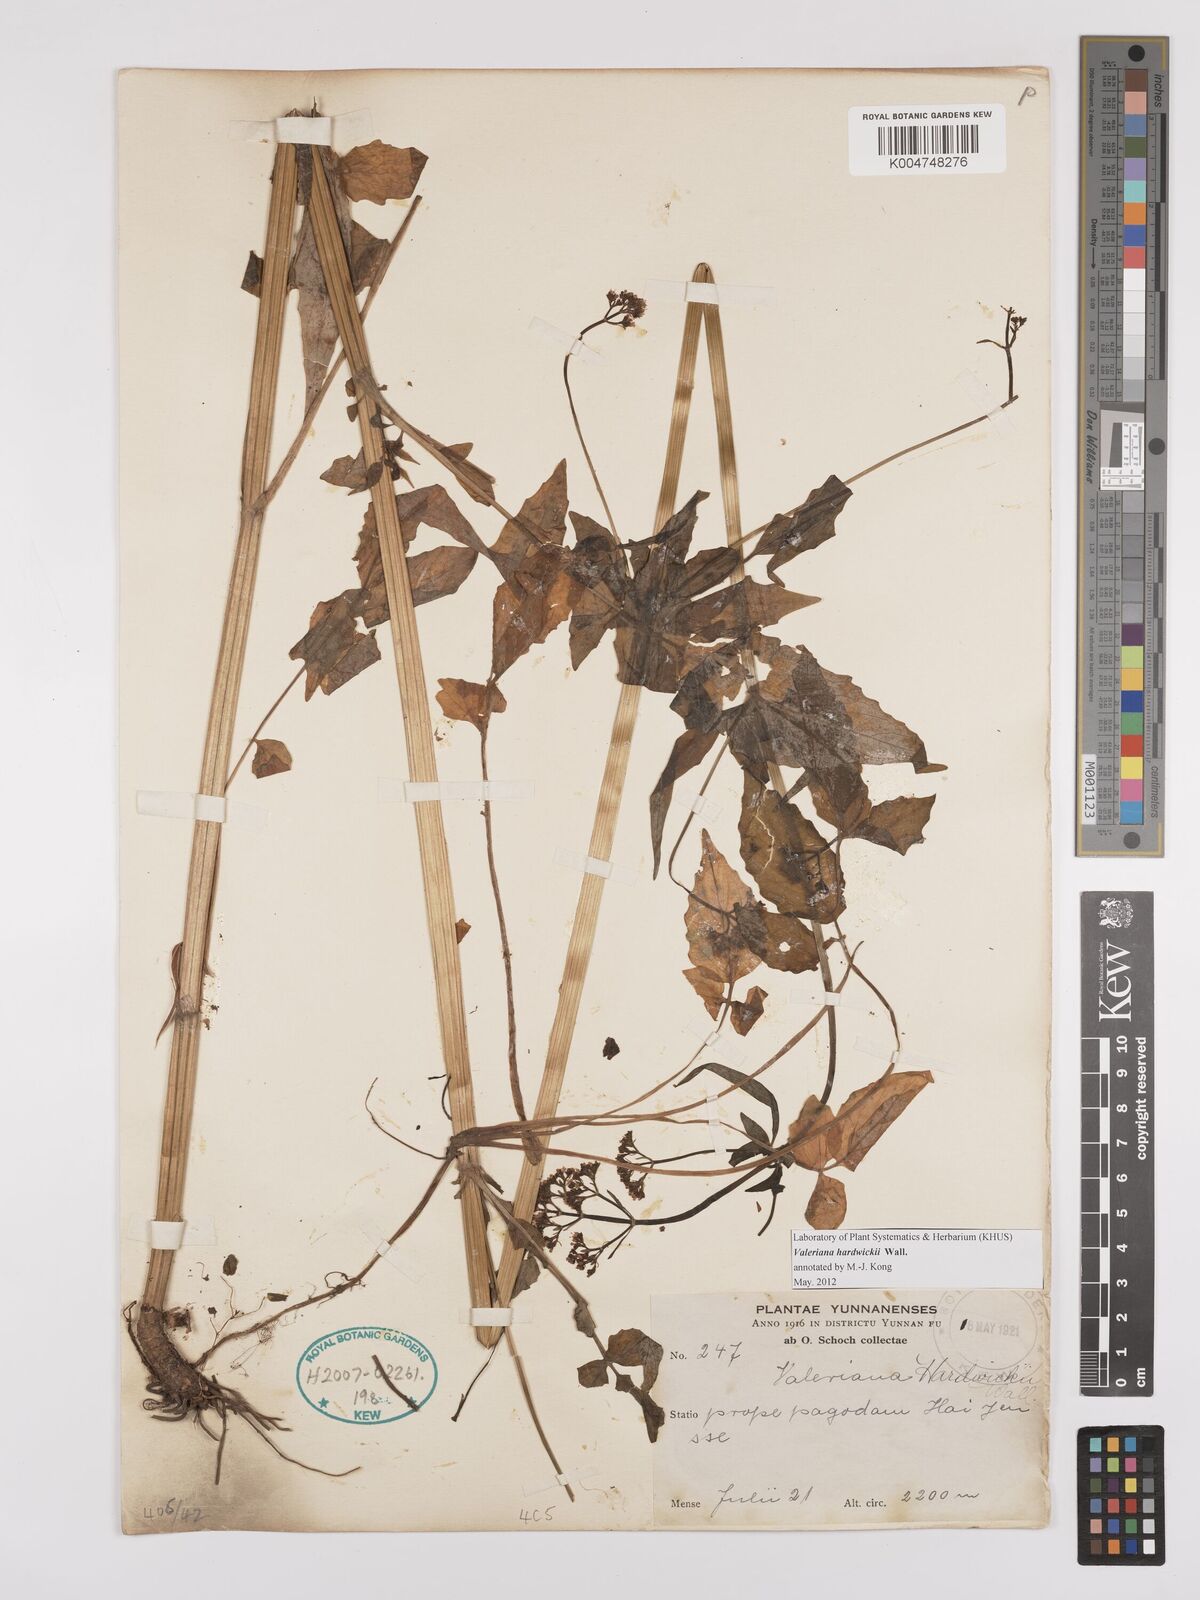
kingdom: Plantae
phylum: Tracheophyta
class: Magnoliopsida
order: Dipsacales
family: Caprifoliaceae
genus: Valeriana
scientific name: Valeriana hardwickei
